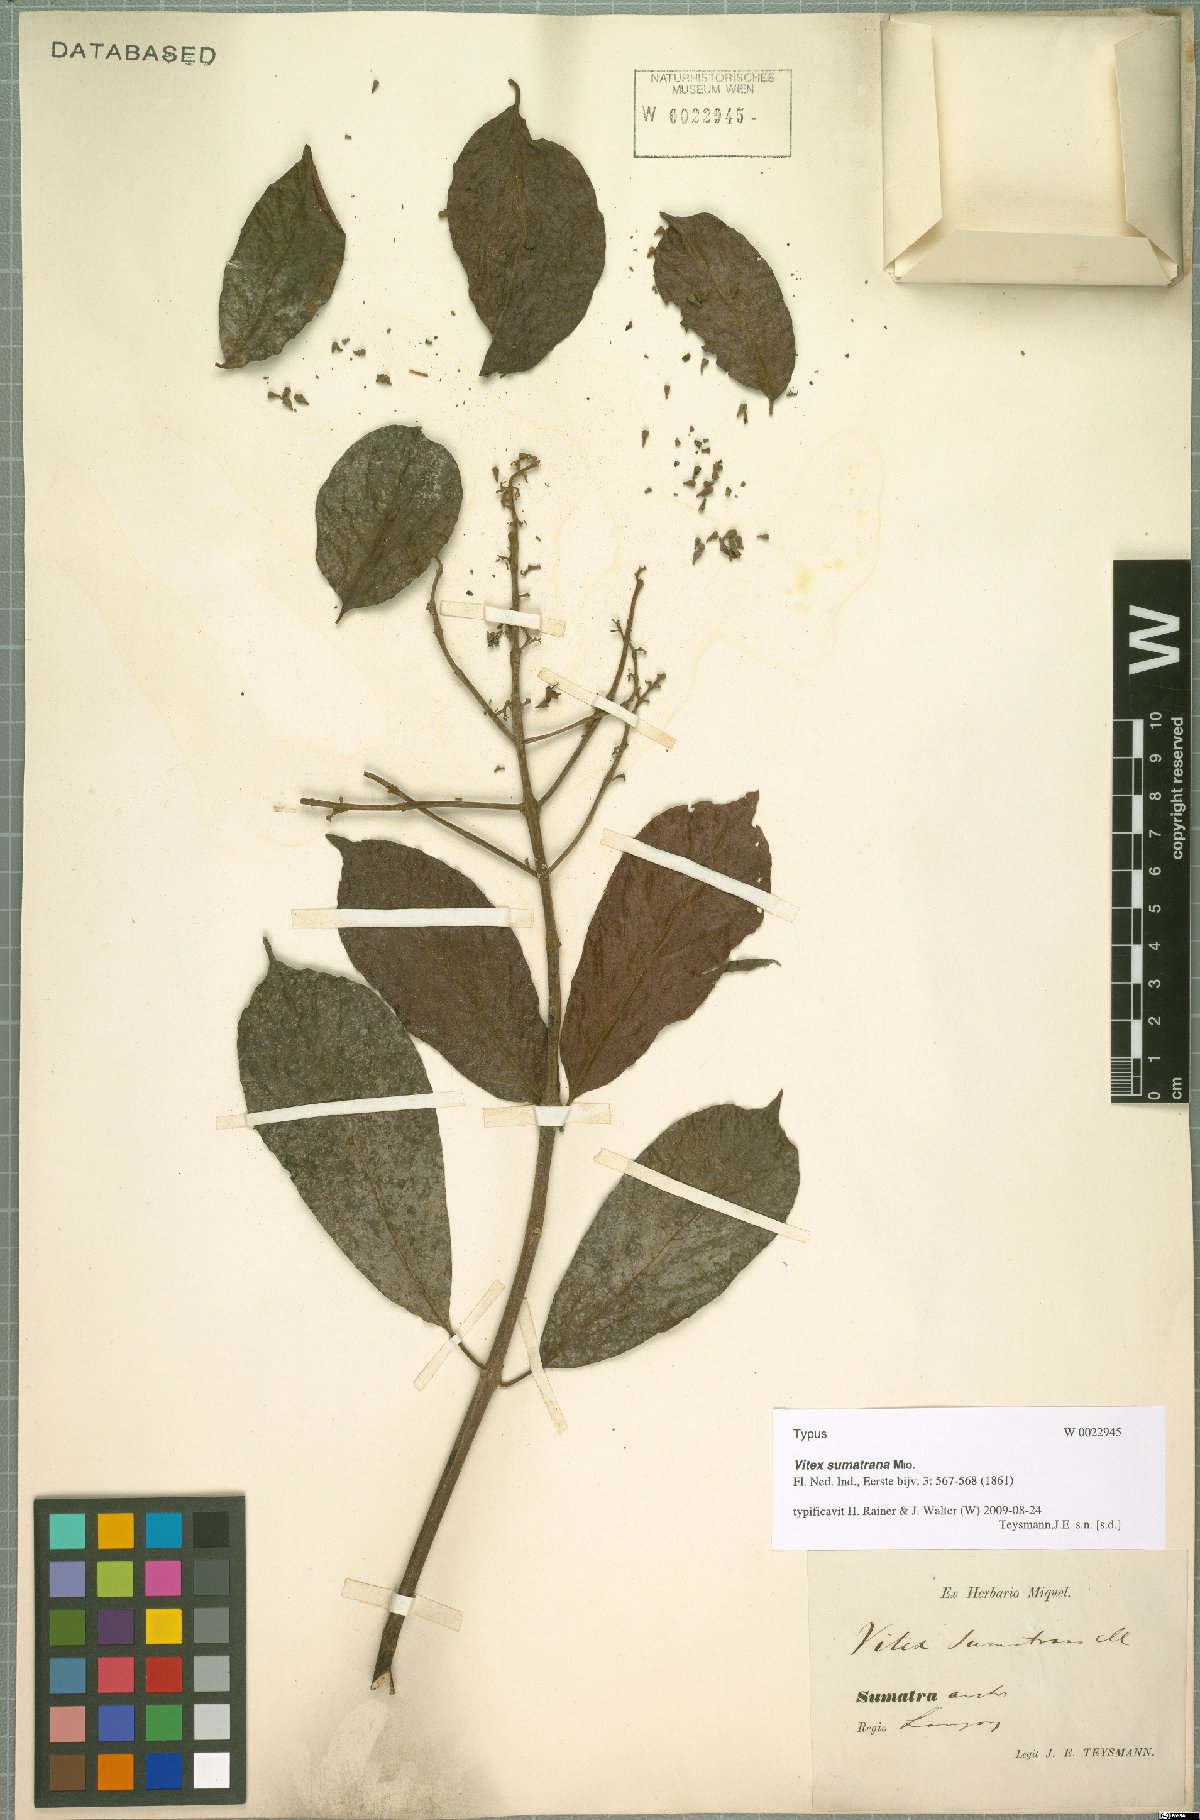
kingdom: Plantae
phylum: Tracheophyta
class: Magnoliopsida
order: Lamiales
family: Lamiaceae
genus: Vitex
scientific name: Vitex quinata
